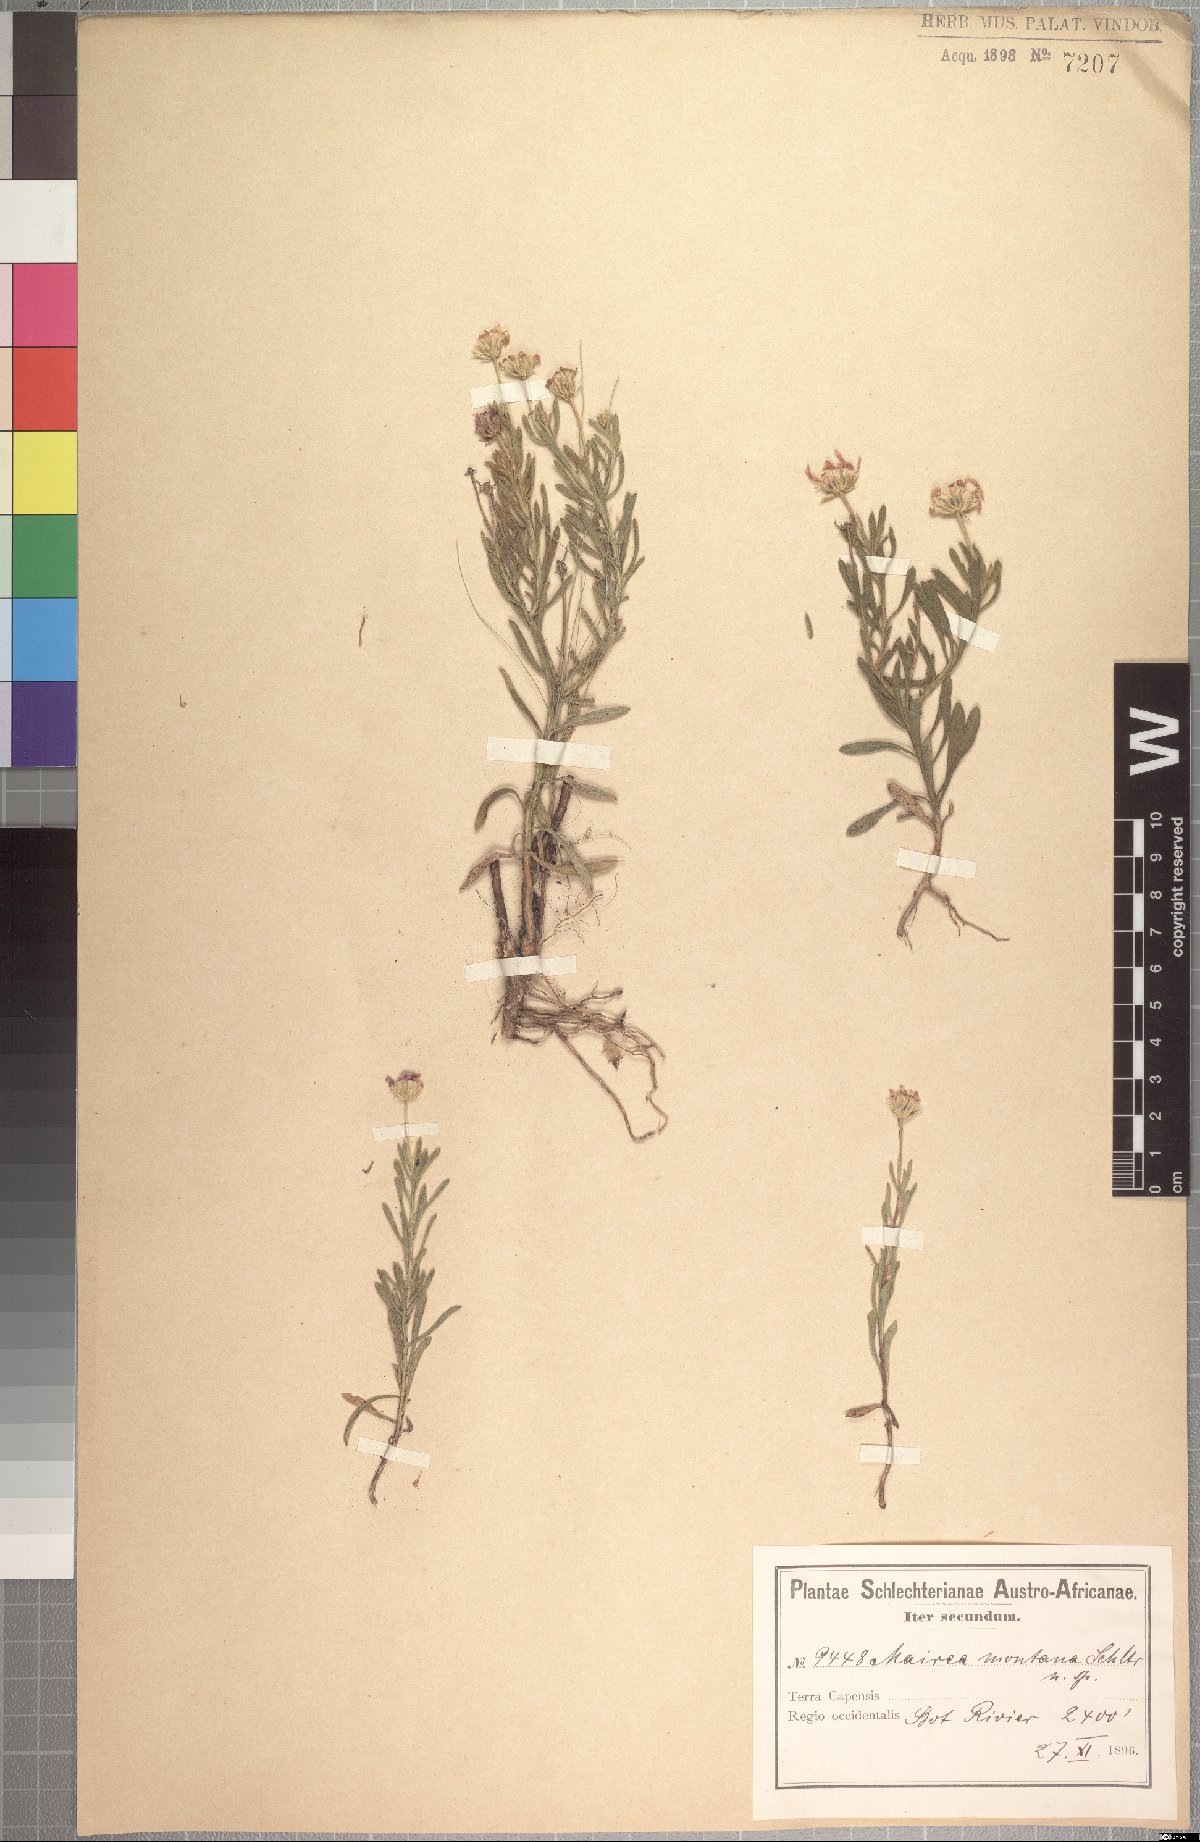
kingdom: Plantae
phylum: Tracheophyta
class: Magnoliopsida
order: Asterales
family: Asteraceae
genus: Zyrphelis
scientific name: Zyrphelis montana
